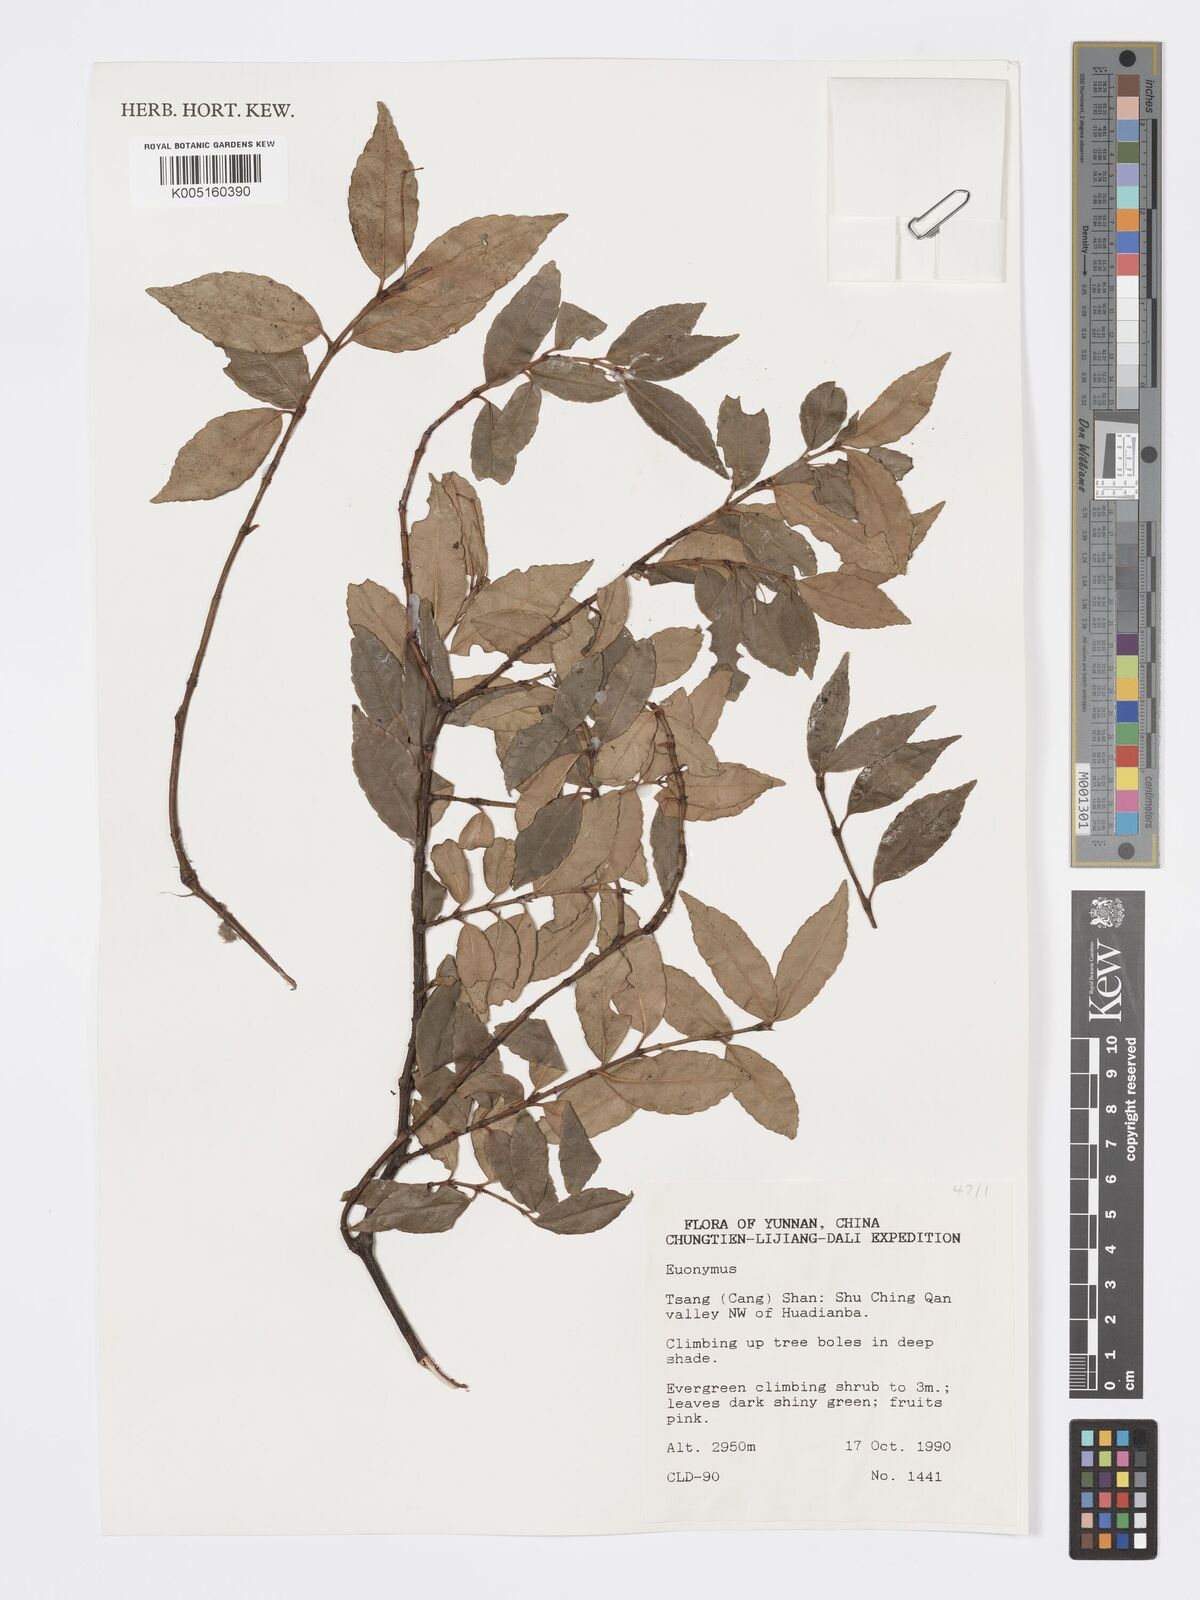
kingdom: Plantae
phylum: Tracheophyta
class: Magnoliopsida
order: Celastrales
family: Celastraceae
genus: Euonymus
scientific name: Euonymus
